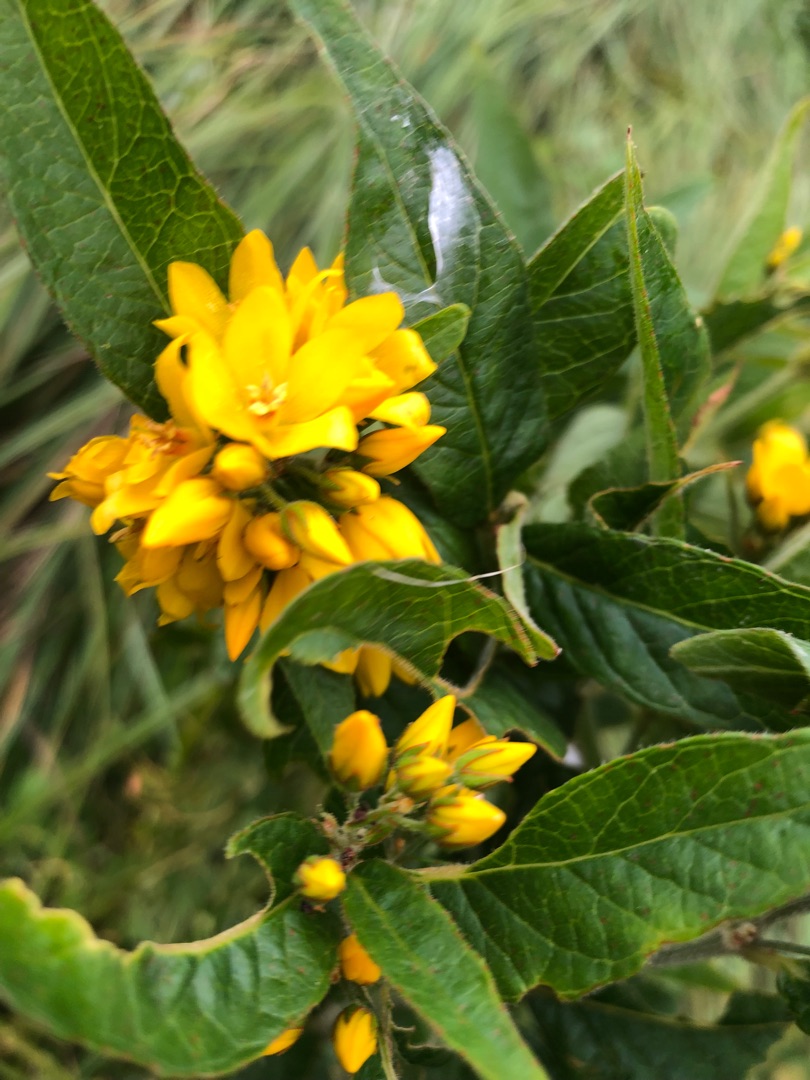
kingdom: Plantae
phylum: Tracheophyta
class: Magnoliopsida
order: Ericales
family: Primulaceae
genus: Lysimachia
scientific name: Lysimachia vulgaris
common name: Almindelig fredløs
